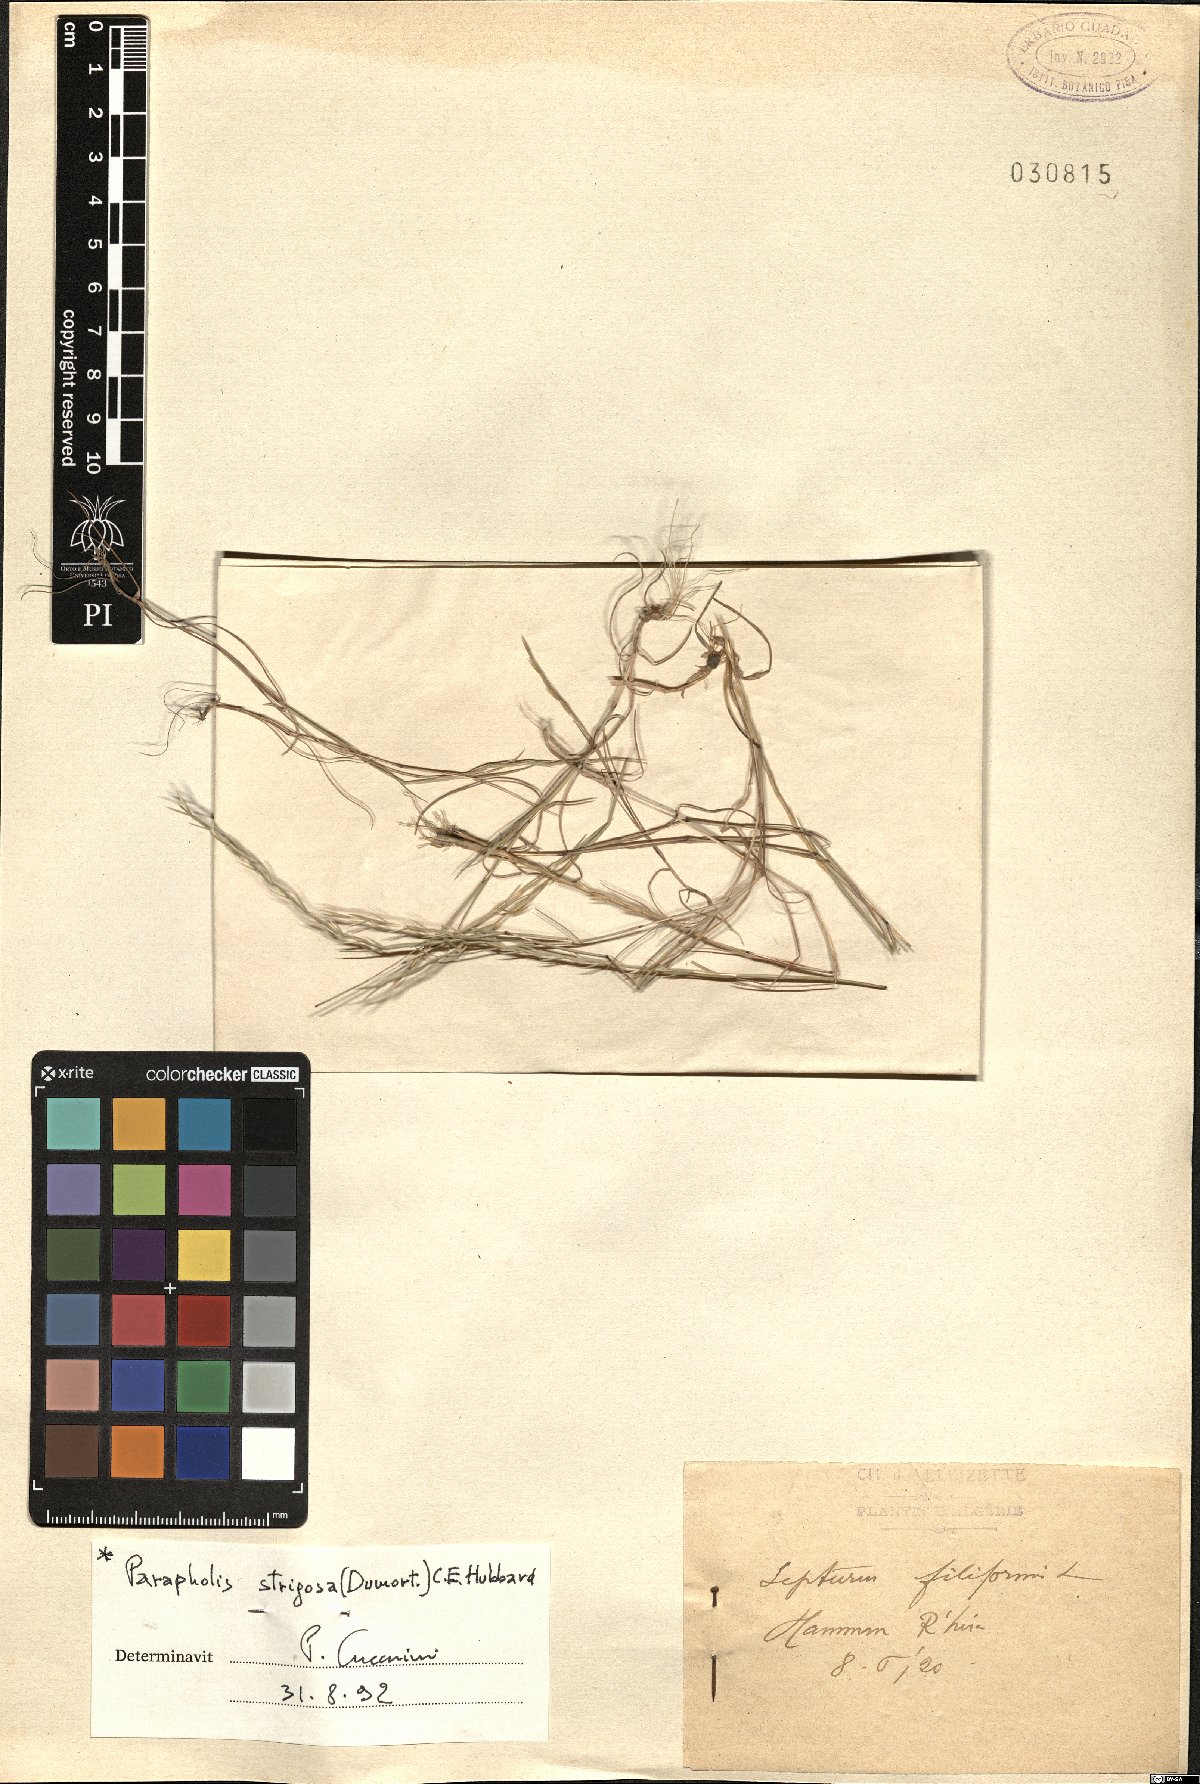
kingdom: Plantae
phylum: Tracheophyta
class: Liliopsida
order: Poales
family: Poaceae
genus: Parapholis
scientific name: Parapholis strigosa
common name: Hard-grass
